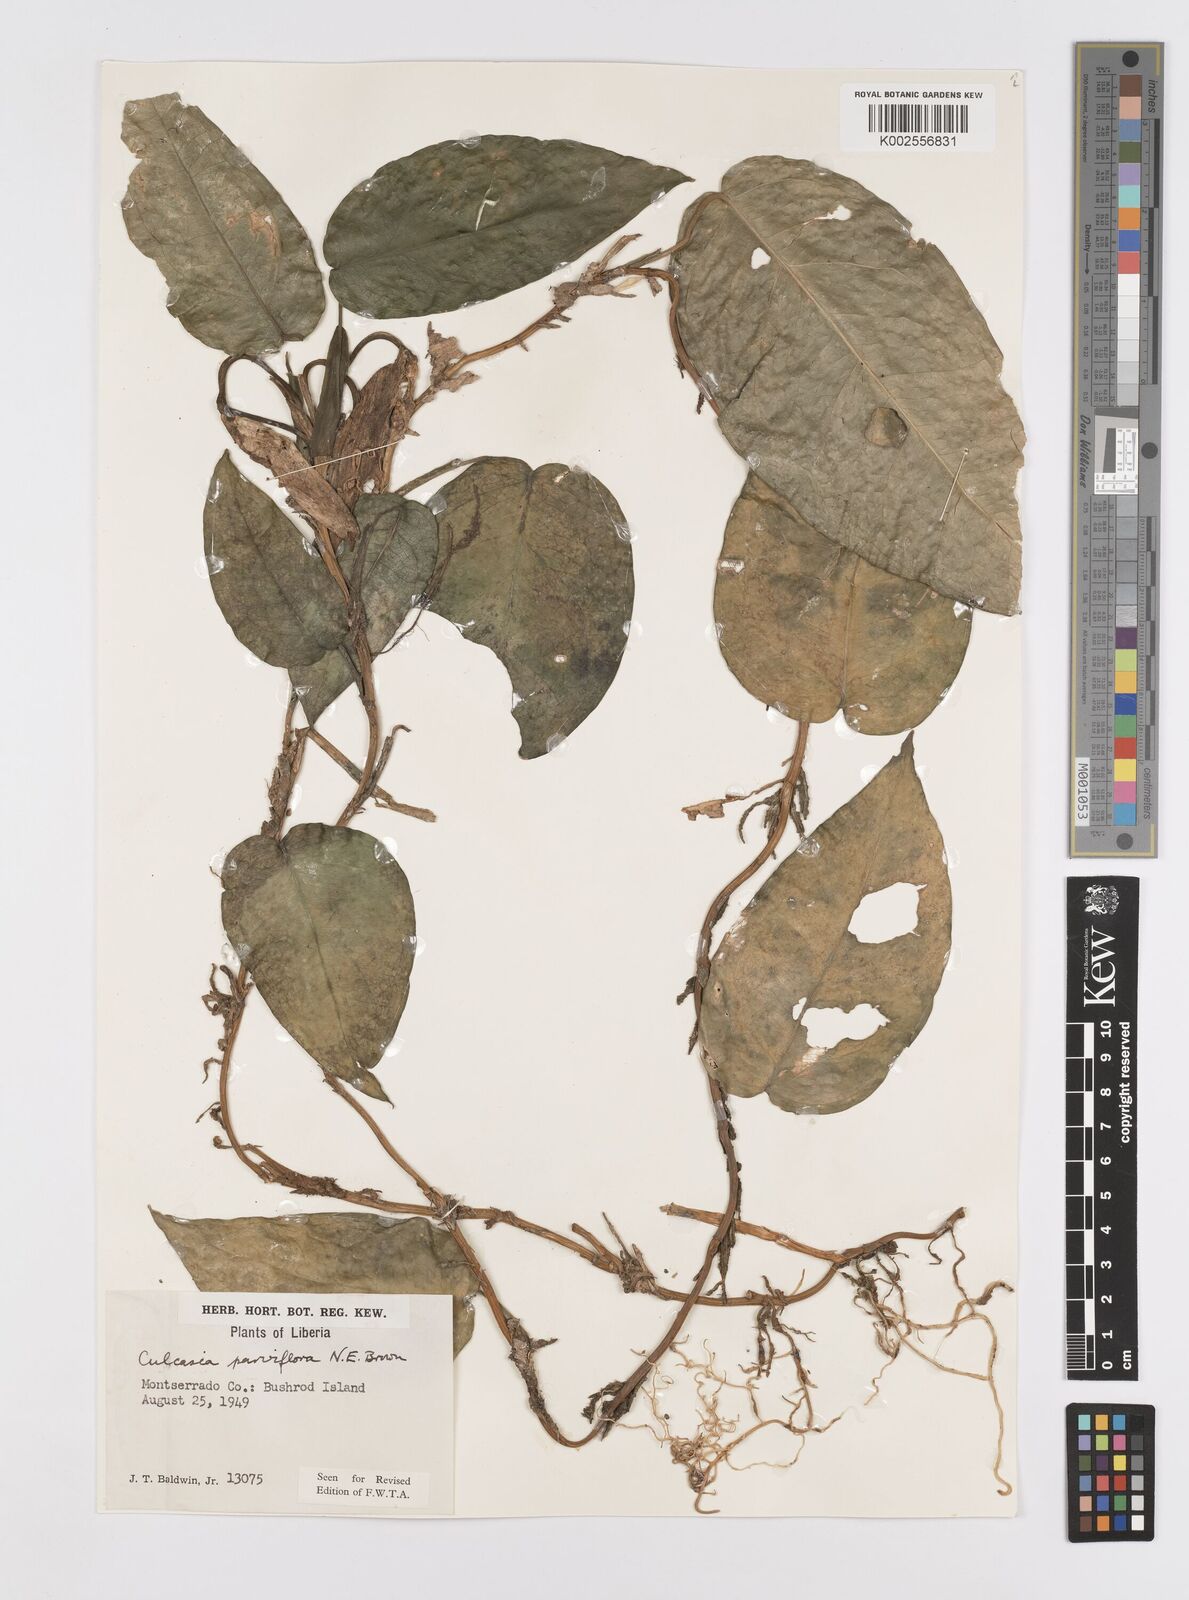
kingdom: Plantae
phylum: Tracheophyta
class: Liliopsida
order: Alismatales
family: Araceae
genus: Culcasia
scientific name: Culcasia parviflora
